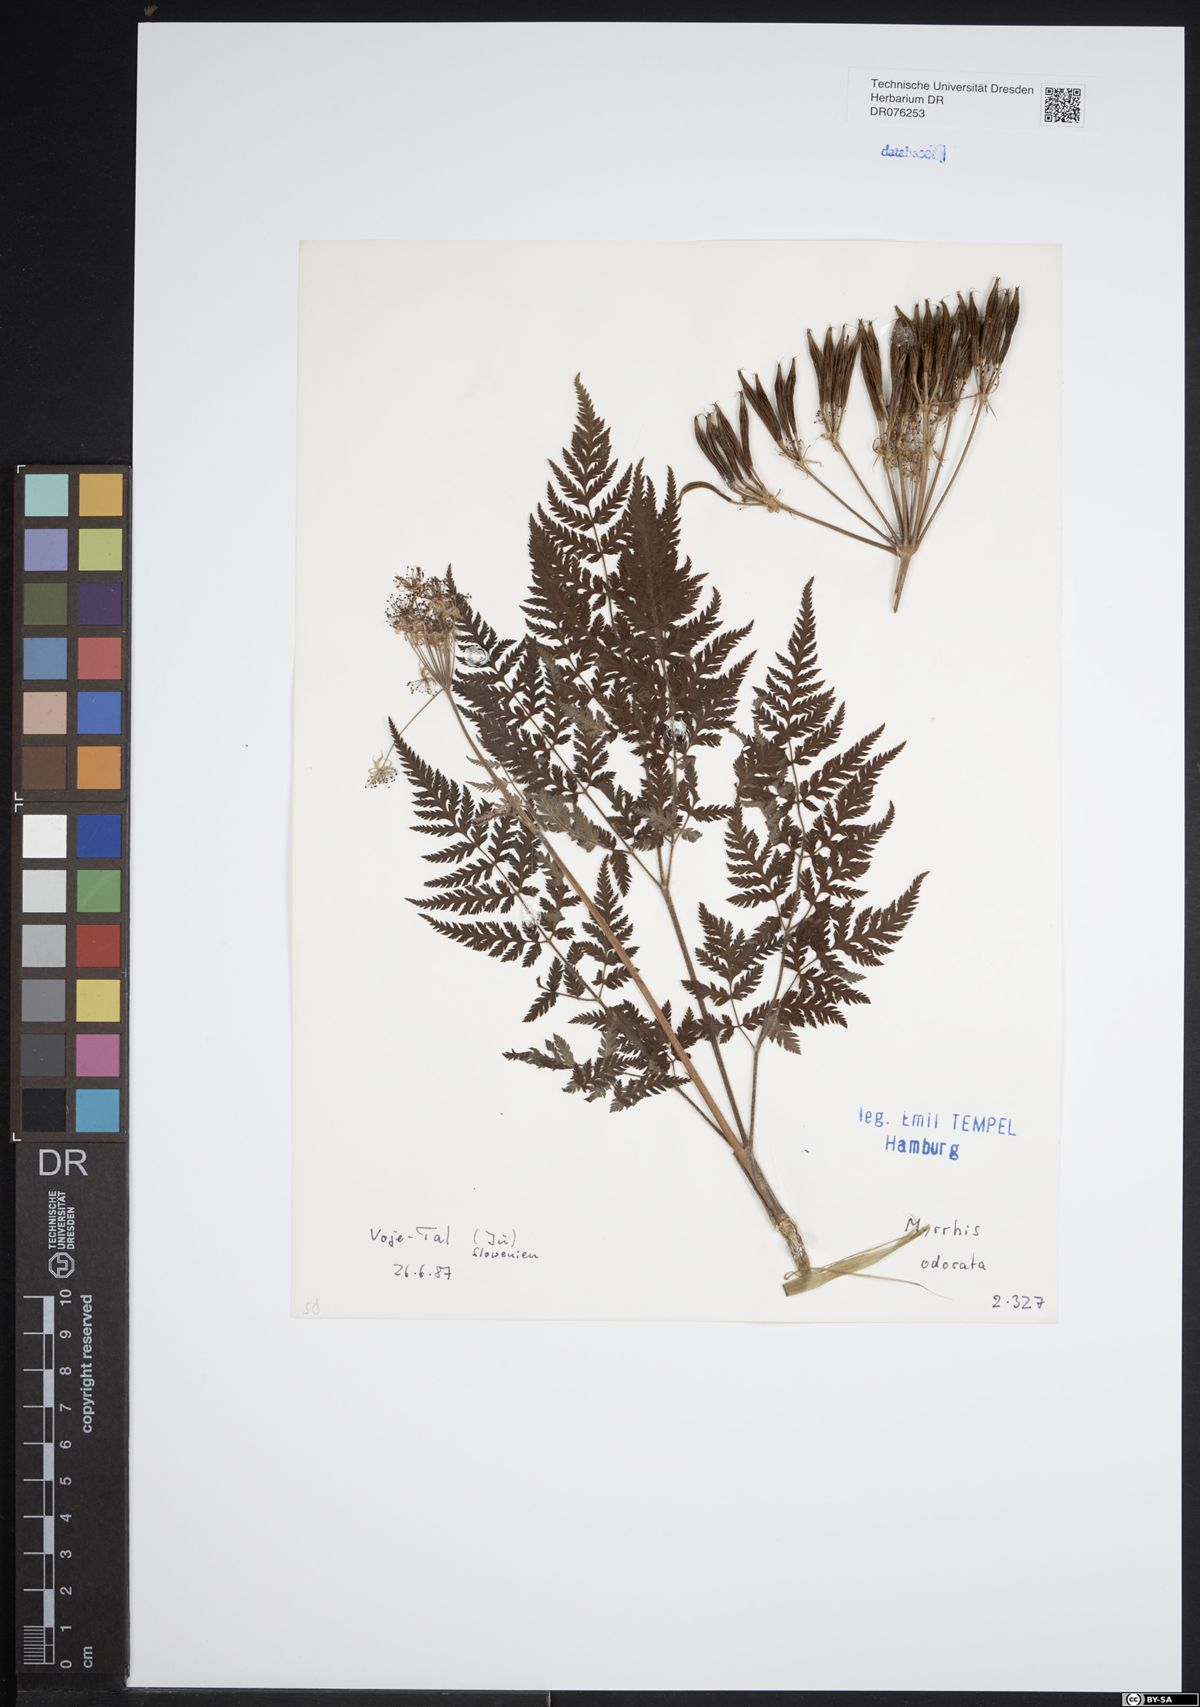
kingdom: Plantae
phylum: Tracheophyta
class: Magnoliopsida
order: Apiales
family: Apiaceae
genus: Myrrhis
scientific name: Myrrhis odorata
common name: Sweet cicely
